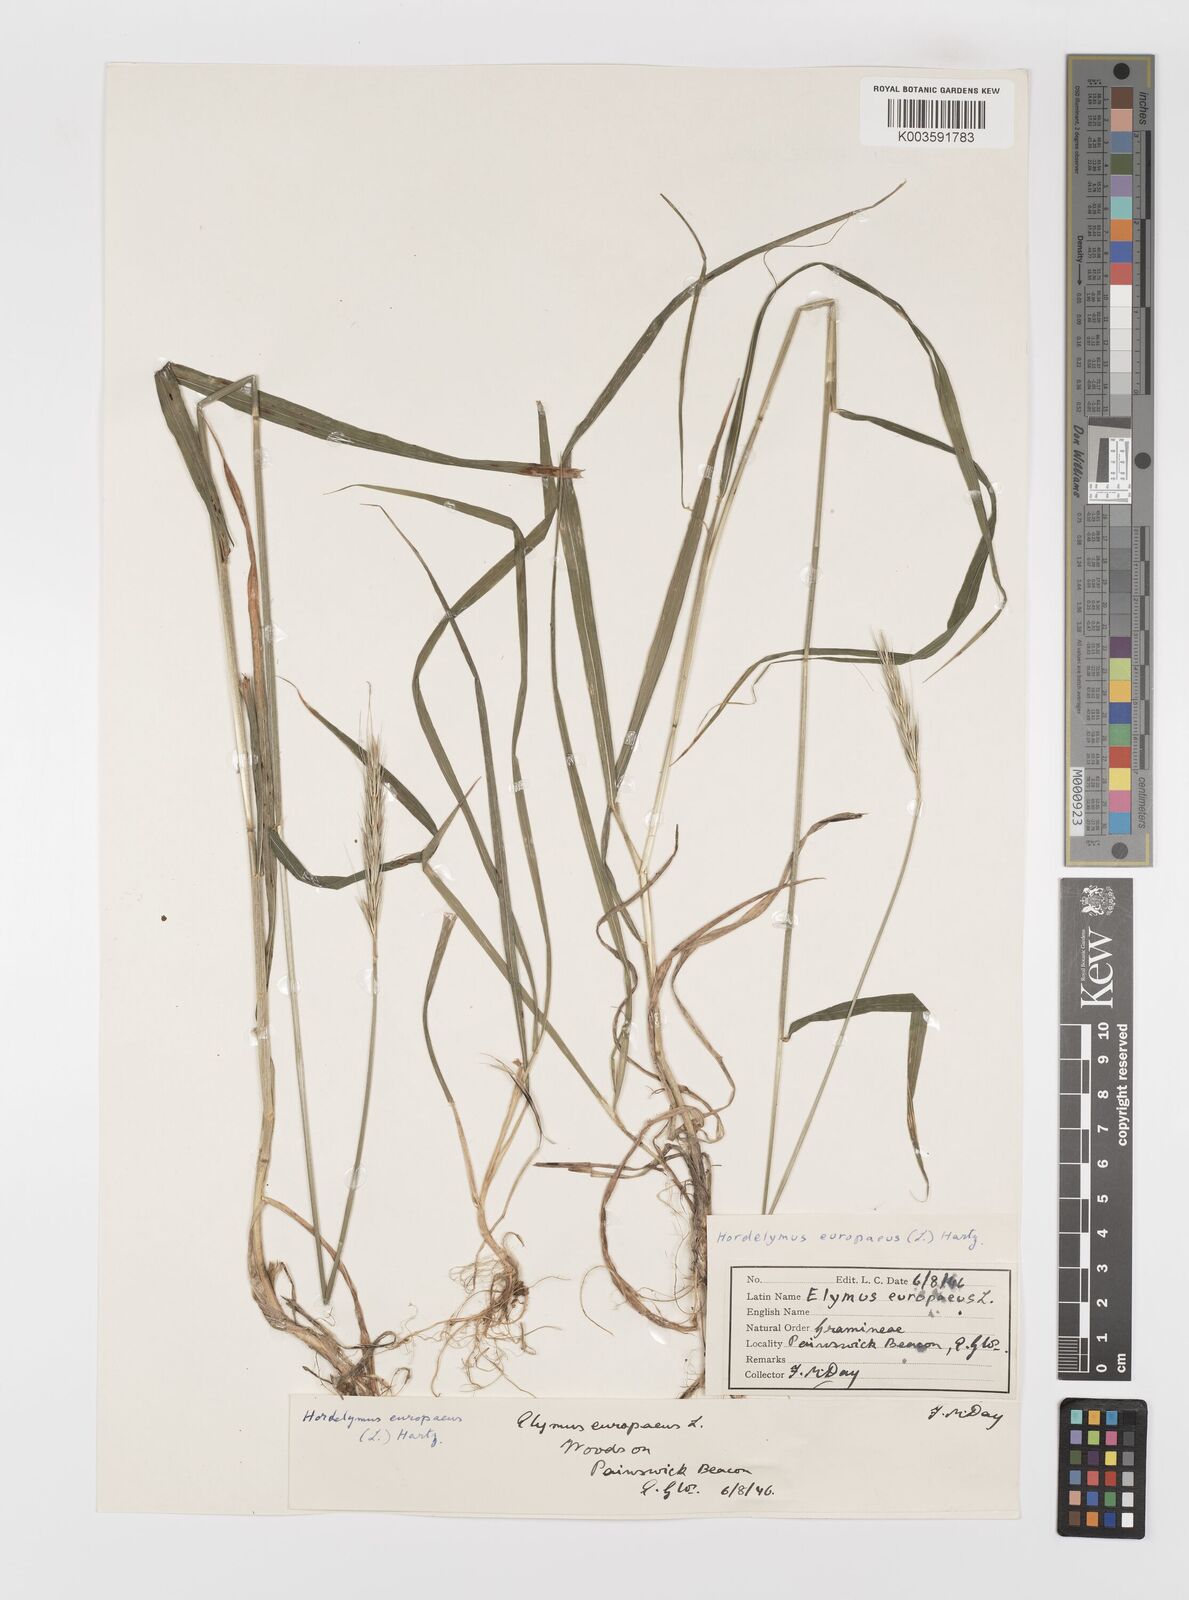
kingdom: Plantae
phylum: Tracheophyta
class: Liliopsida
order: Poales
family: Poaceae
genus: Hordelymus
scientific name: Hordelymus europaeus
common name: Wood-barley
